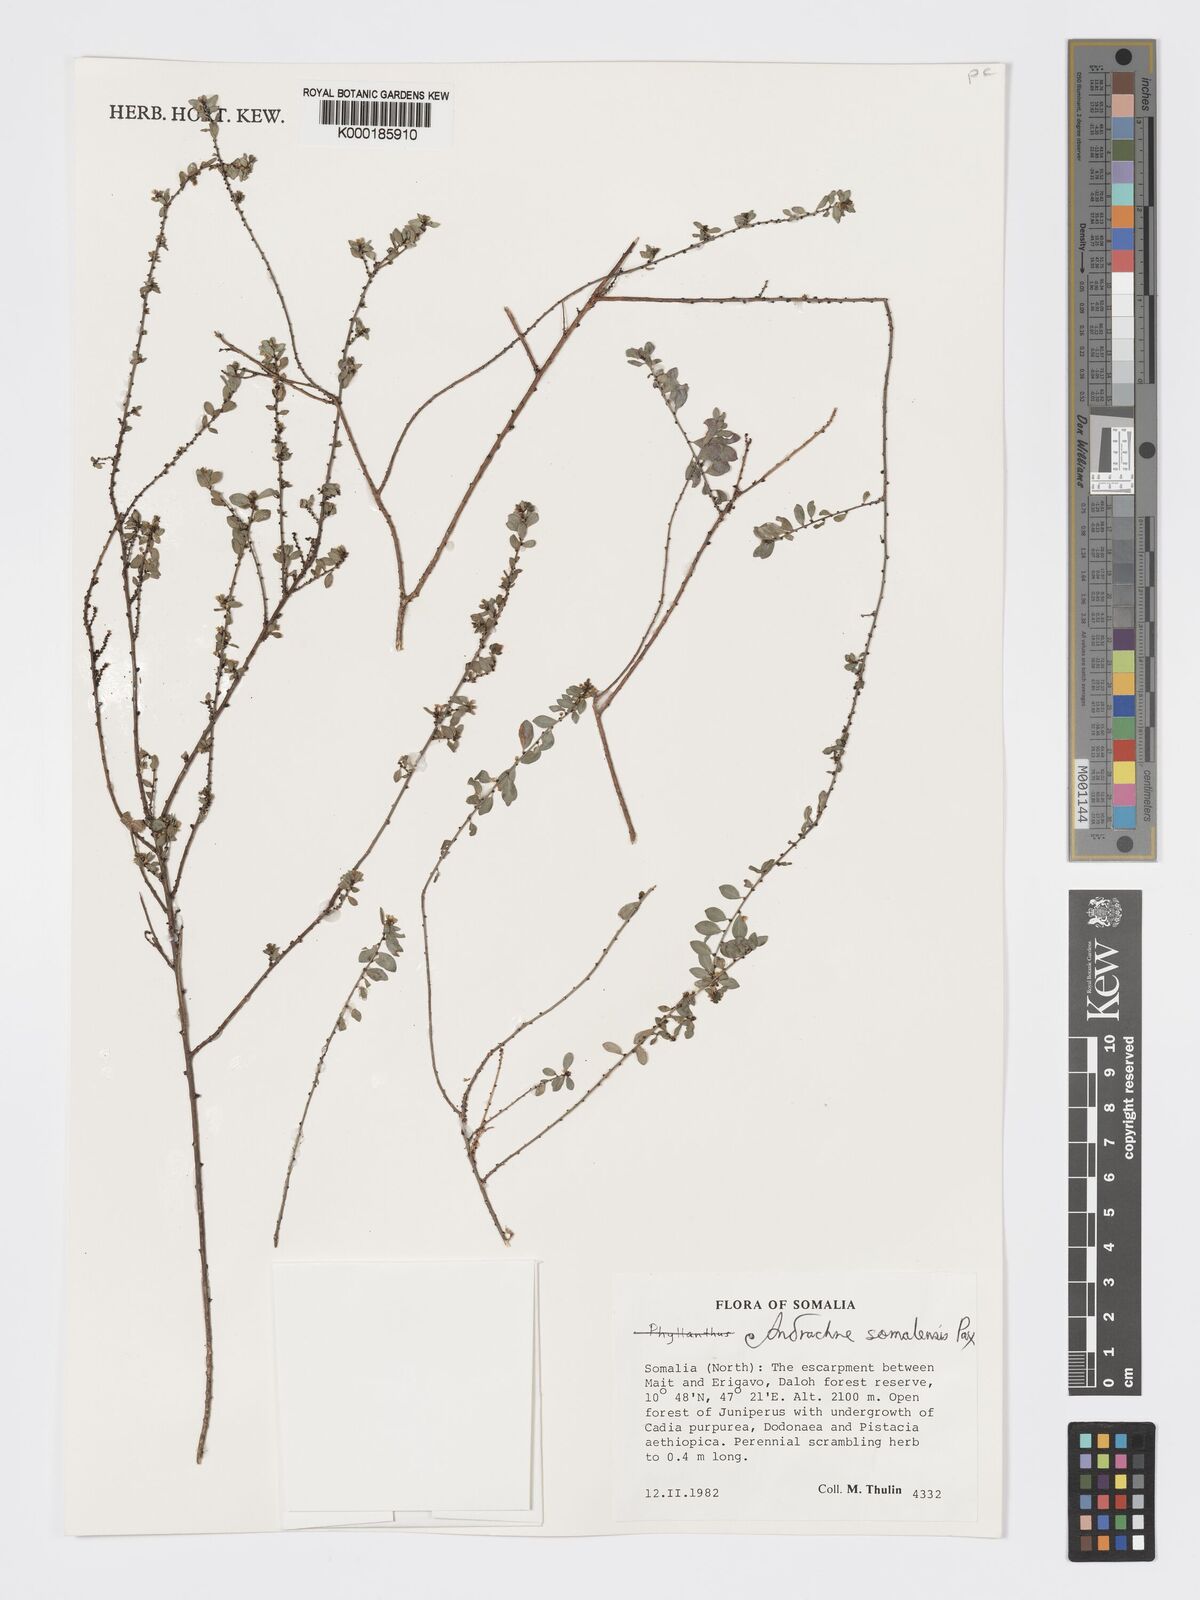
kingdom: Plantae
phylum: Tracheophyta
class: Magnoliopsida
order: Malpighiales
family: Phyllanthaceae
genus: Andrachne
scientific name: Andrachne schweinfurthii
